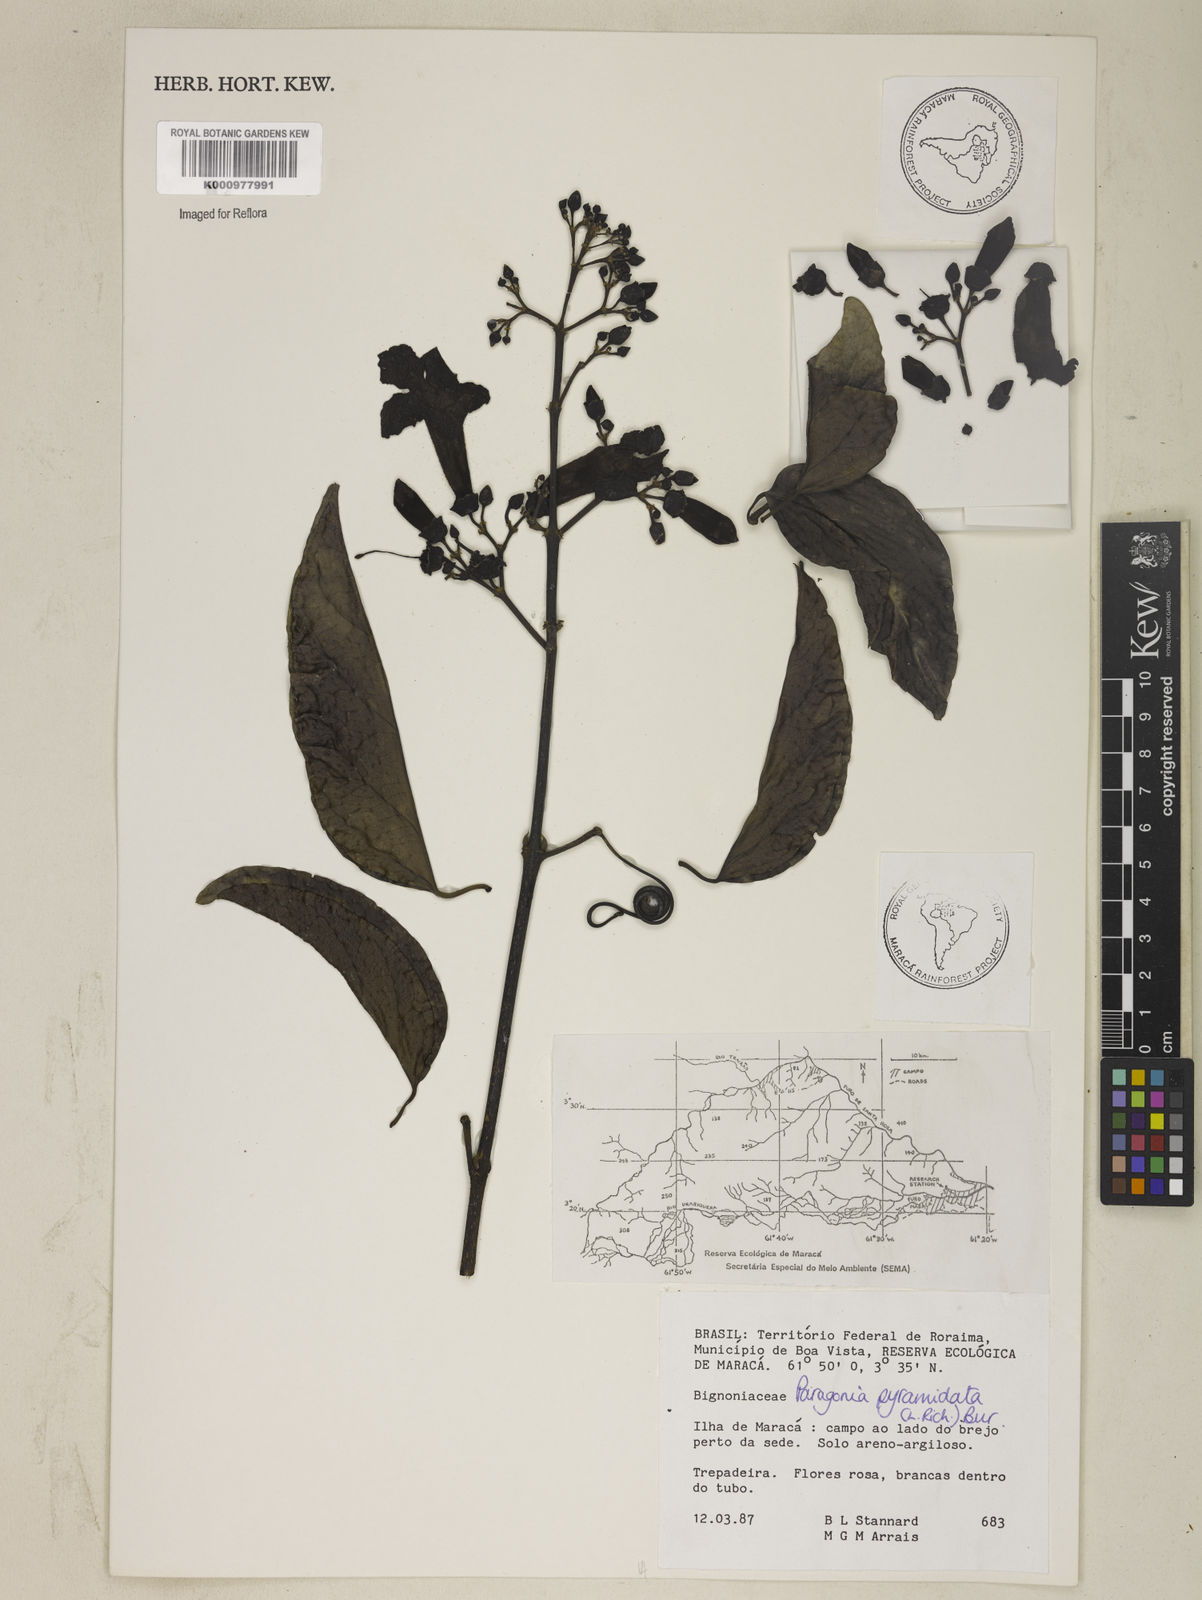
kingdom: Plantae
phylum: Tracheophyta
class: Magnoliopsida
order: Lamiales
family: Bignoniaceae
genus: Tanaecium
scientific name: Tanaecium pyramidatum
